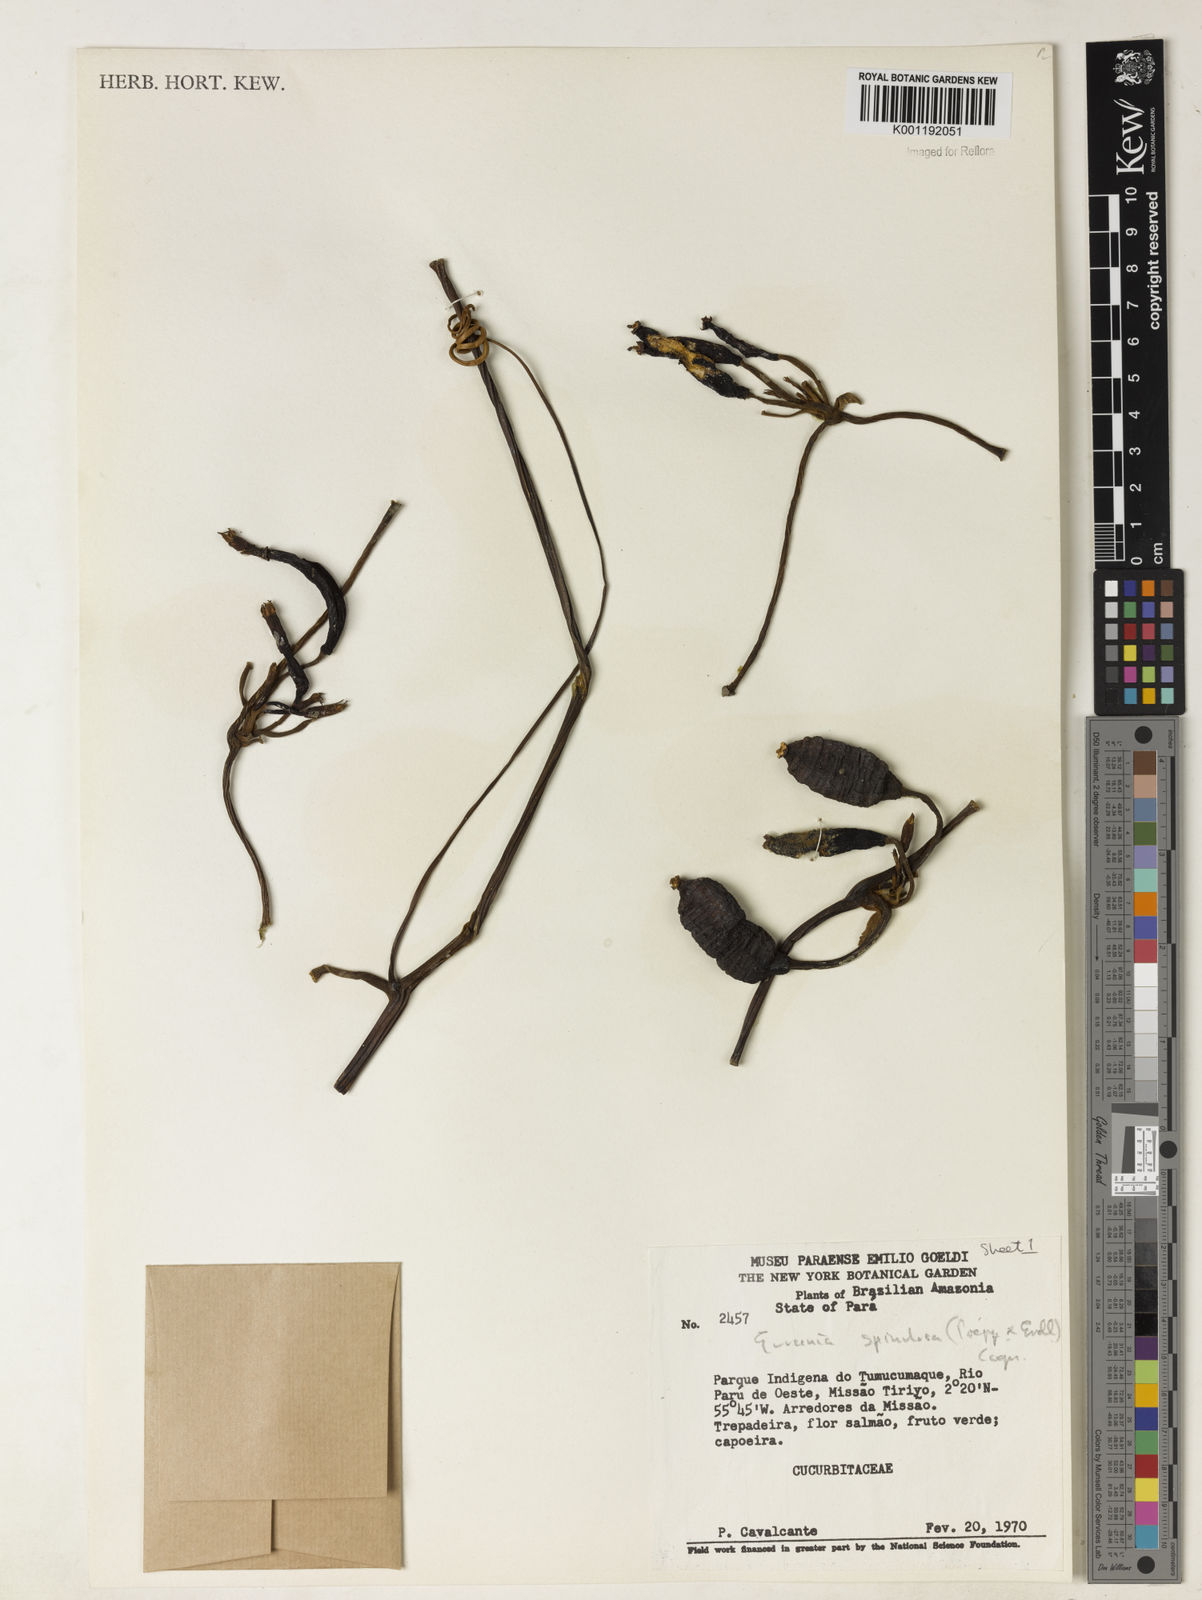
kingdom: Plantae
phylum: Tracheophyta
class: Magnoliopsida
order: Cucurbitales
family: Cucurbitaceae
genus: Gurania
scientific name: Gurania lobata
